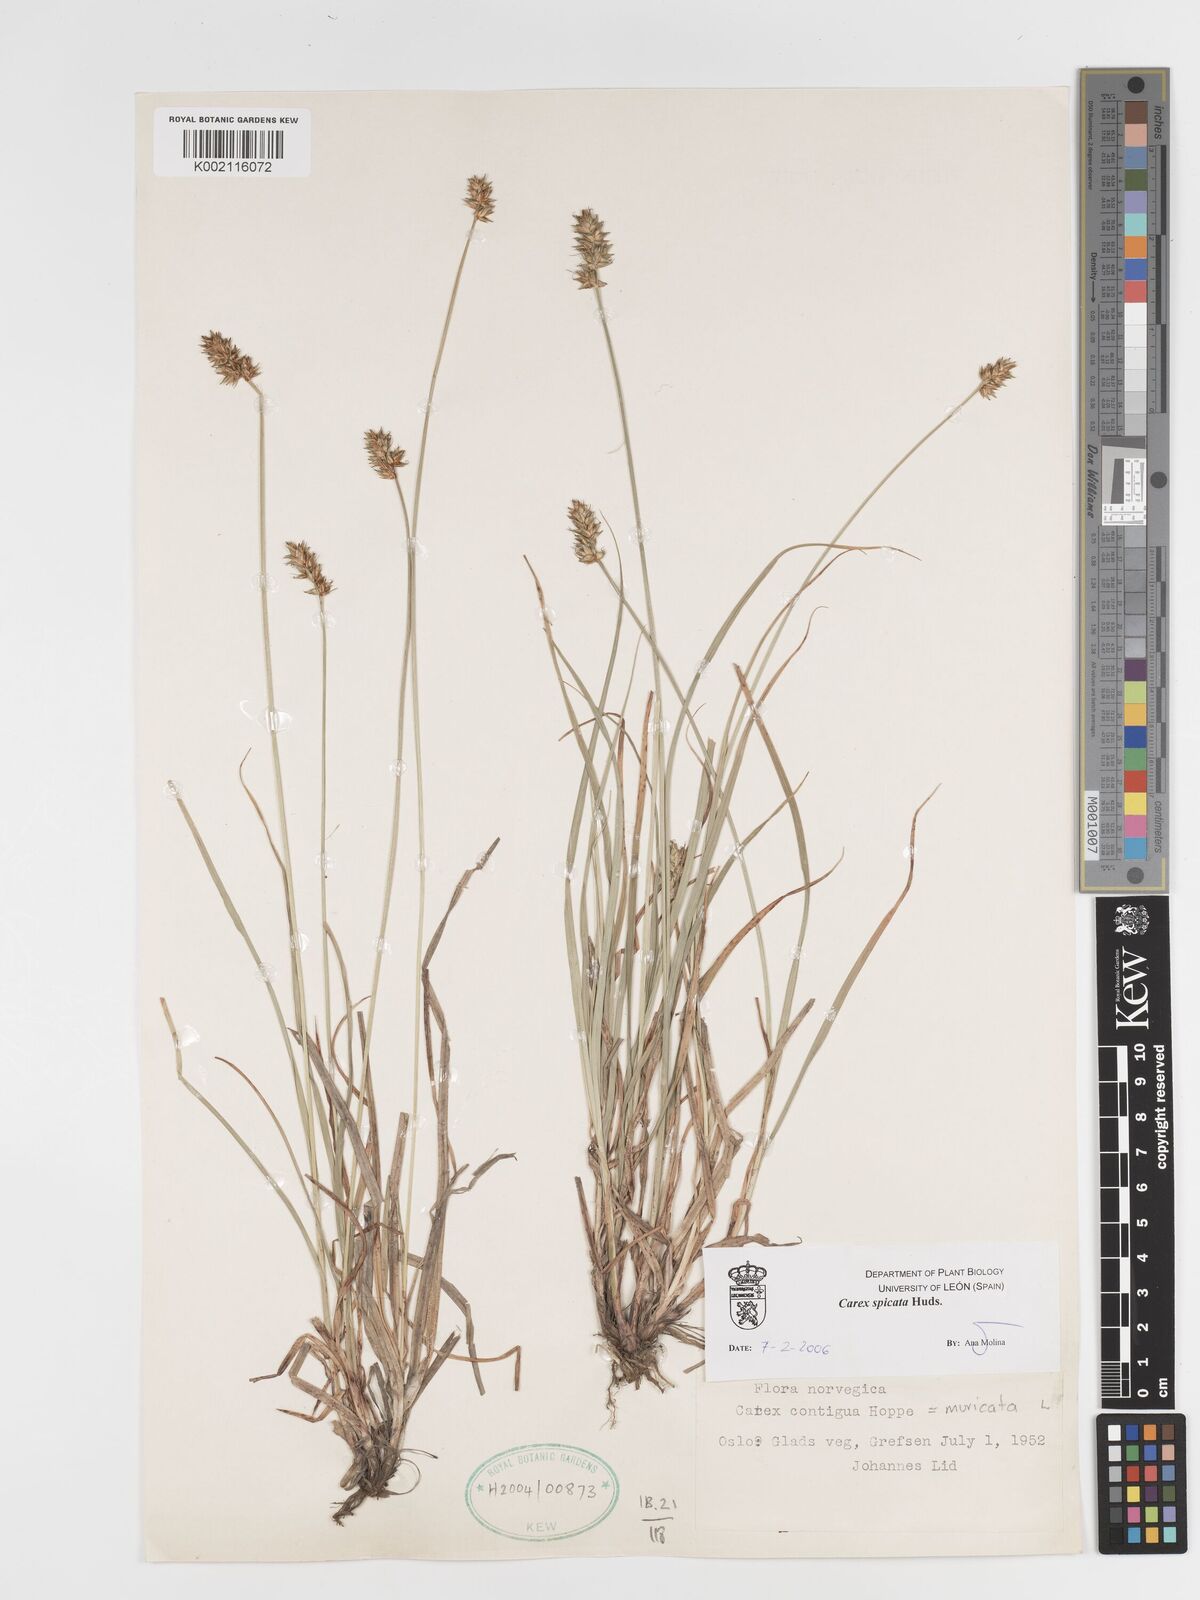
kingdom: Plantae
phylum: Tracheophyta
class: Liliopsida
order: Poales
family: Cyperaceae
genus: Carex
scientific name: Carex spicata
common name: Spiked sedge
